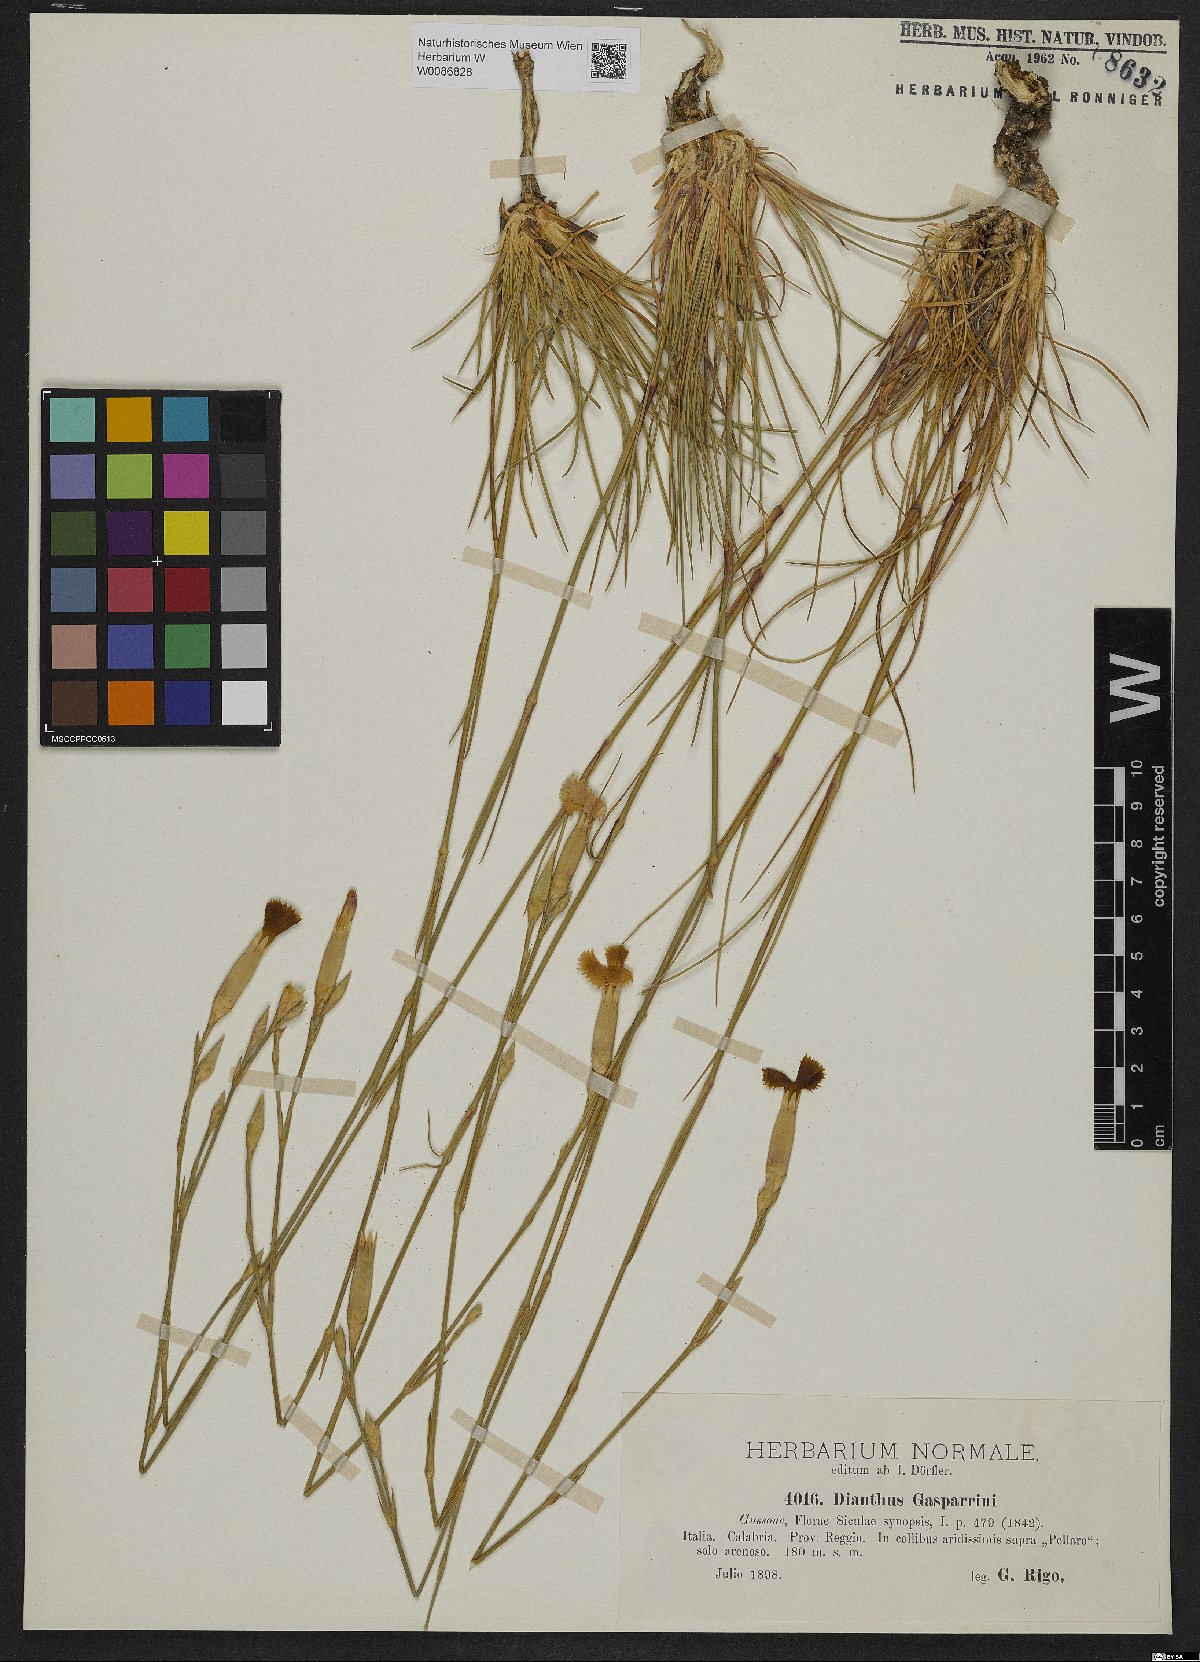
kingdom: Plantae
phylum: Tracheophyta
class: Magnoliopsida
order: Caryophyllales
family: Caryophyllaceae
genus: Dianthus
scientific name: Dianthus siculus
